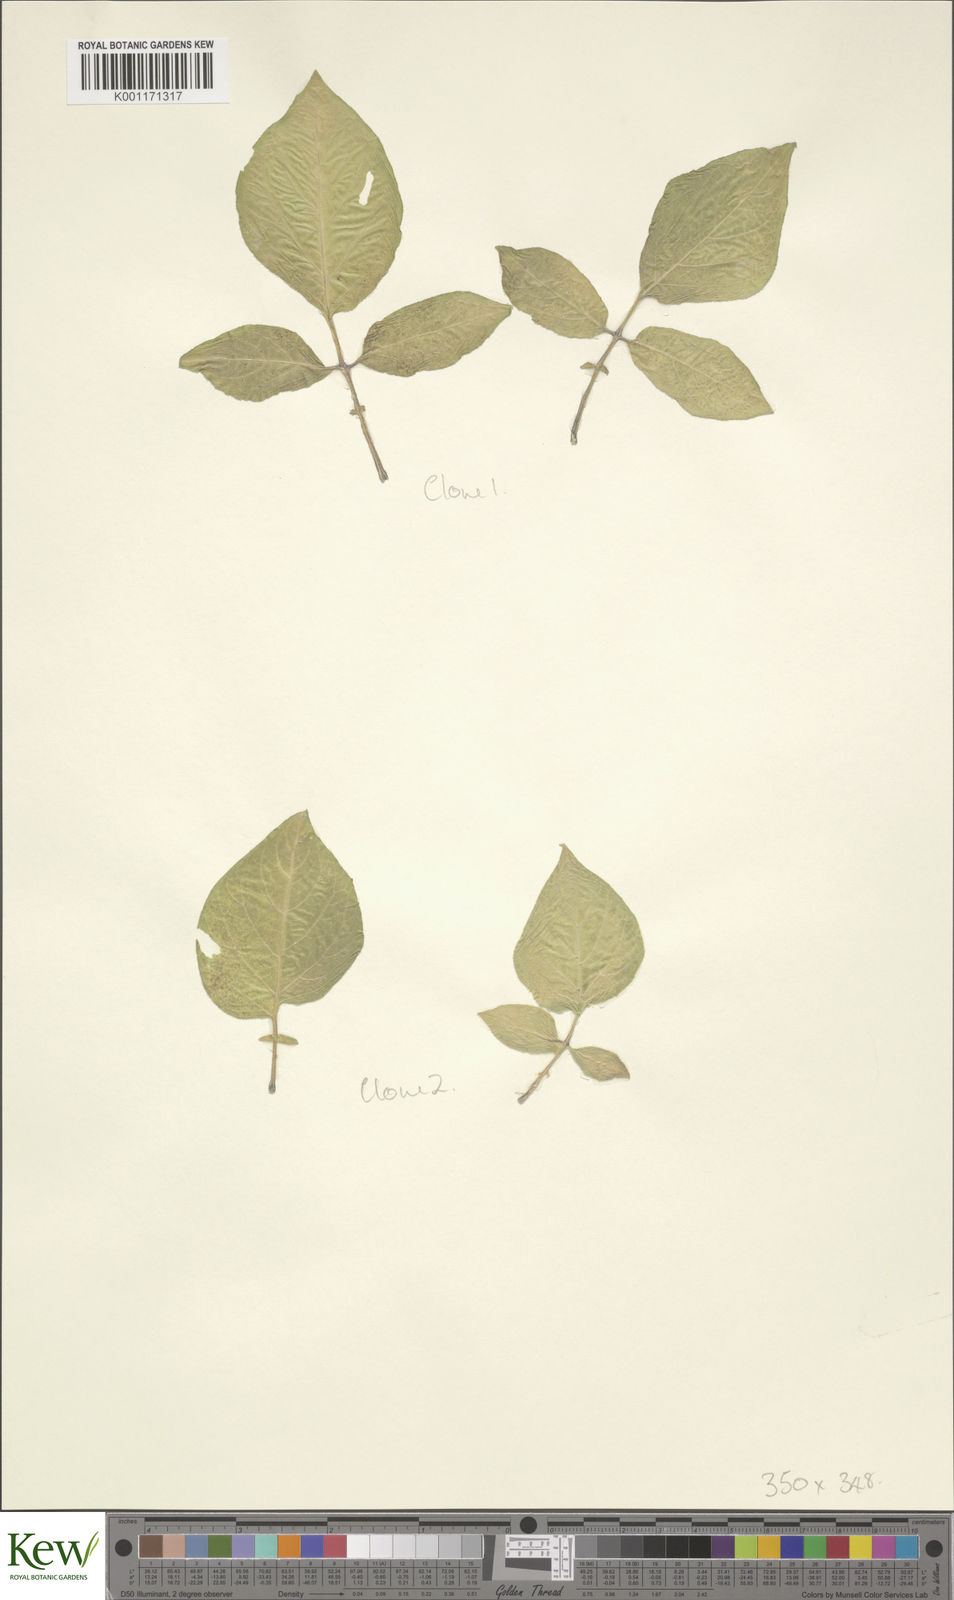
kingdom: Plantae
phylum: Tracheophyta
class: Magnoliopsida
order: Solanales
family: Solanaceae
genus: Solanum
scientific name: Solanum microdontum
